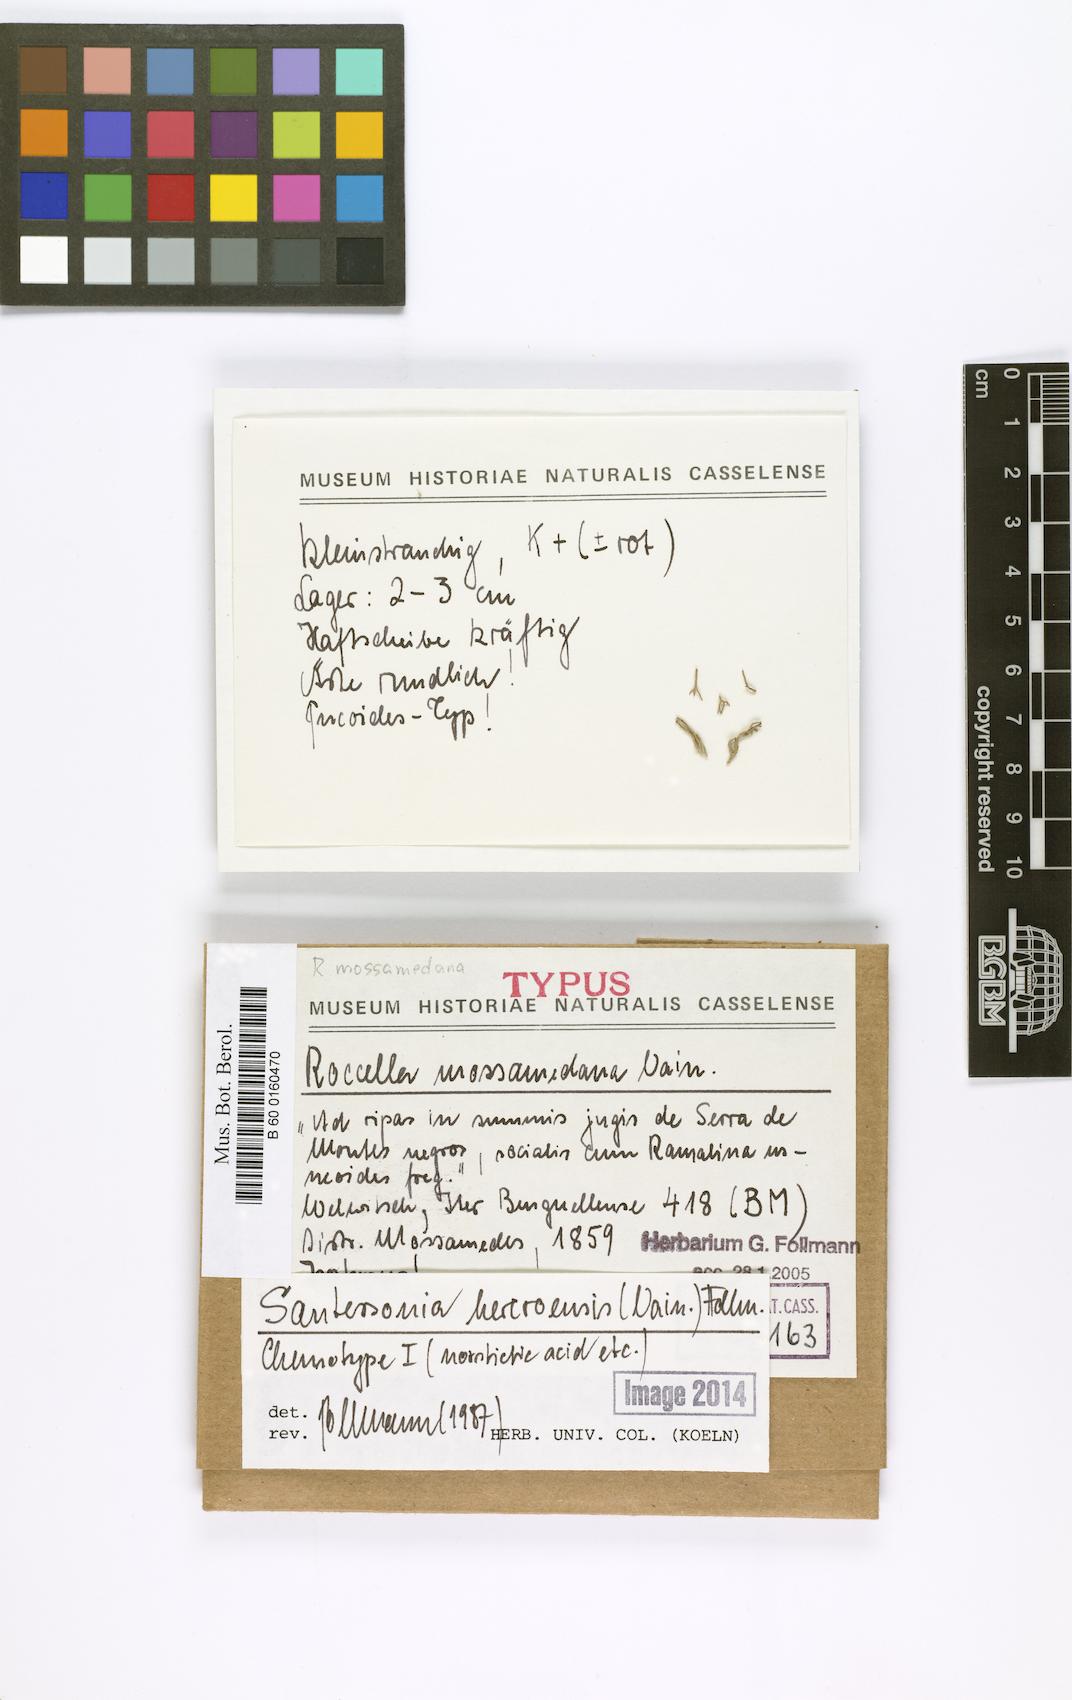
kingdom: Fungi
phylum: Ascomycota
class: Arthoniomycetes
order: Arthoniales
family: Roccellaceae
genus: Roccella
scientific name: Roccella
